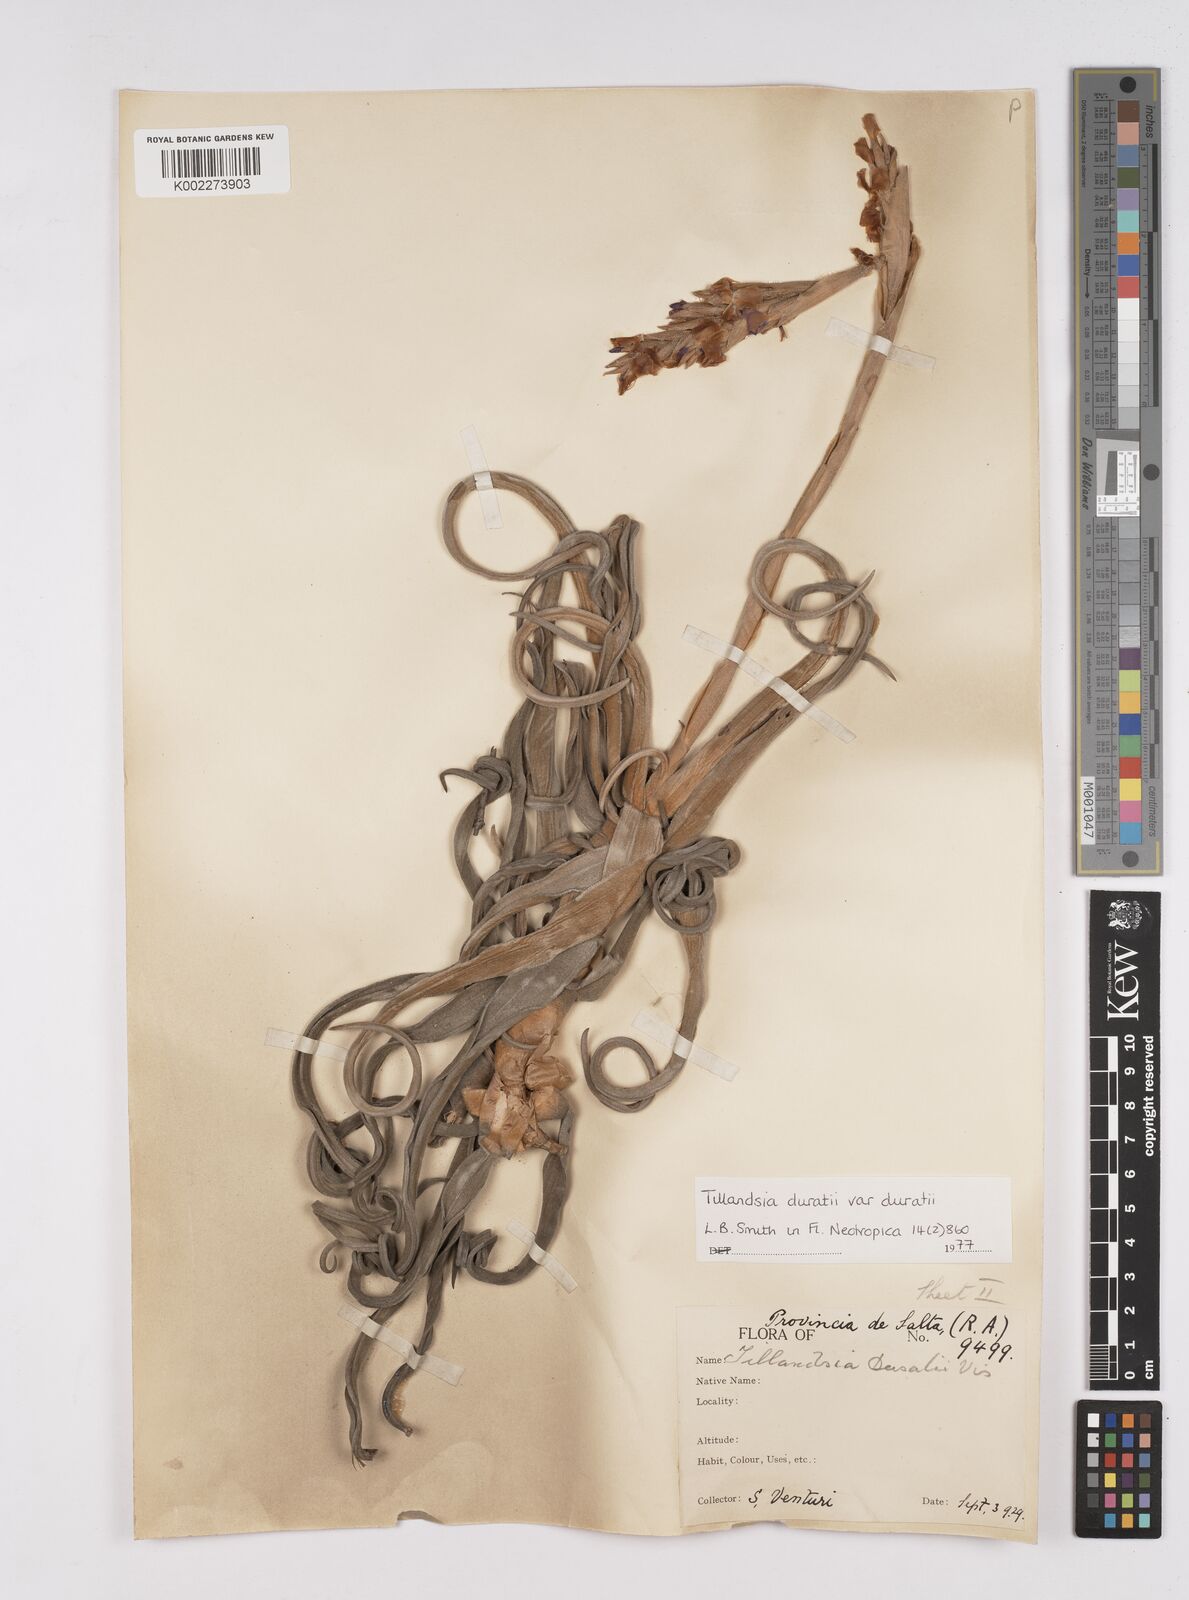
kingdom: Plantae
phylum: Tracheophyta
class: Liliopsida
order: Poales
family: Bromeliaceae
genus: Tillandsia
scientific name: Tillandsia duratii
